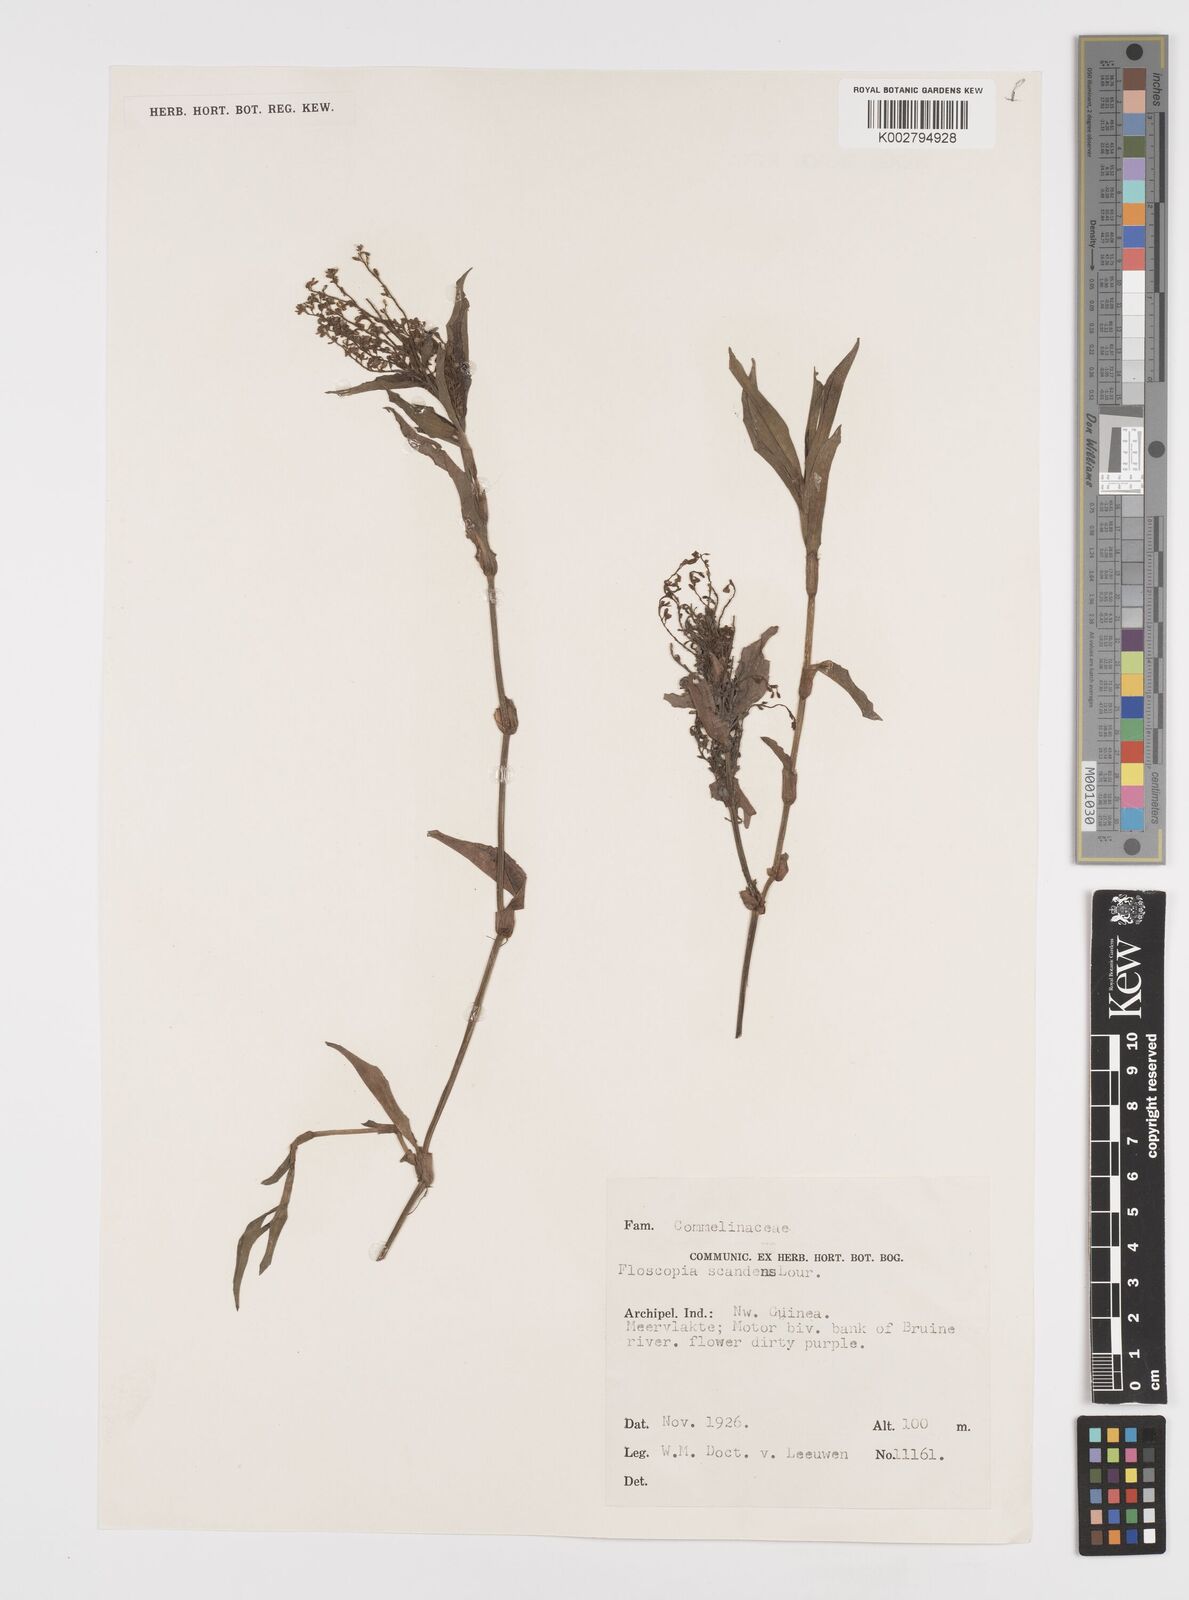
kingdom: Plantae
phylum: Tracheophyta
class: Liliopsida
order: Commelinales
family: Commelinaceae
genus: Floscopa
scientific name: Floscopa scandens
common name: Climbing flower cup
